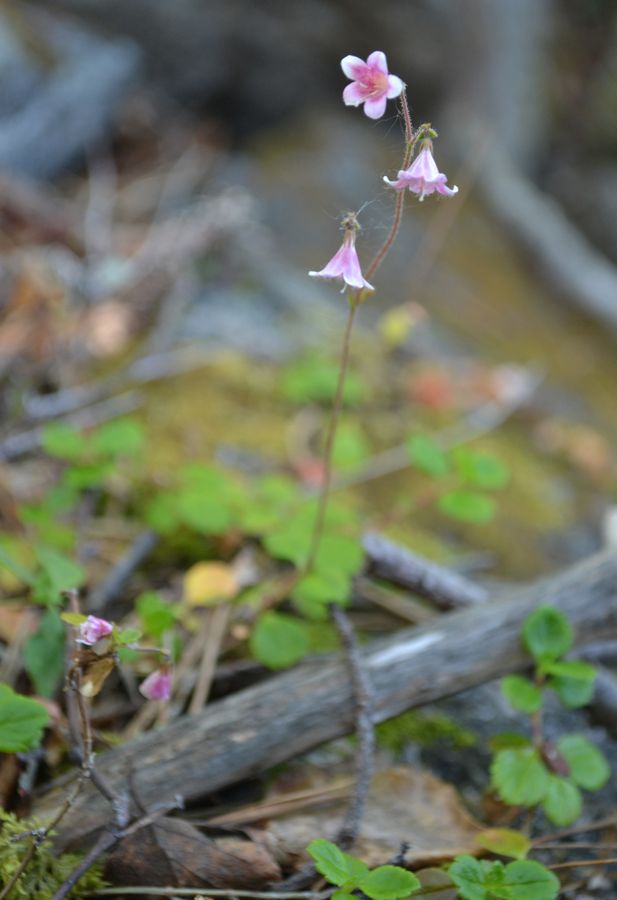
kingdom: Plantae
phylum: Tracheophyta
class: Magnoliopsida
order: Dipsacales
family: Caprifoliaceae
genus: Linnaea
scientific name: Linnaea borealis
